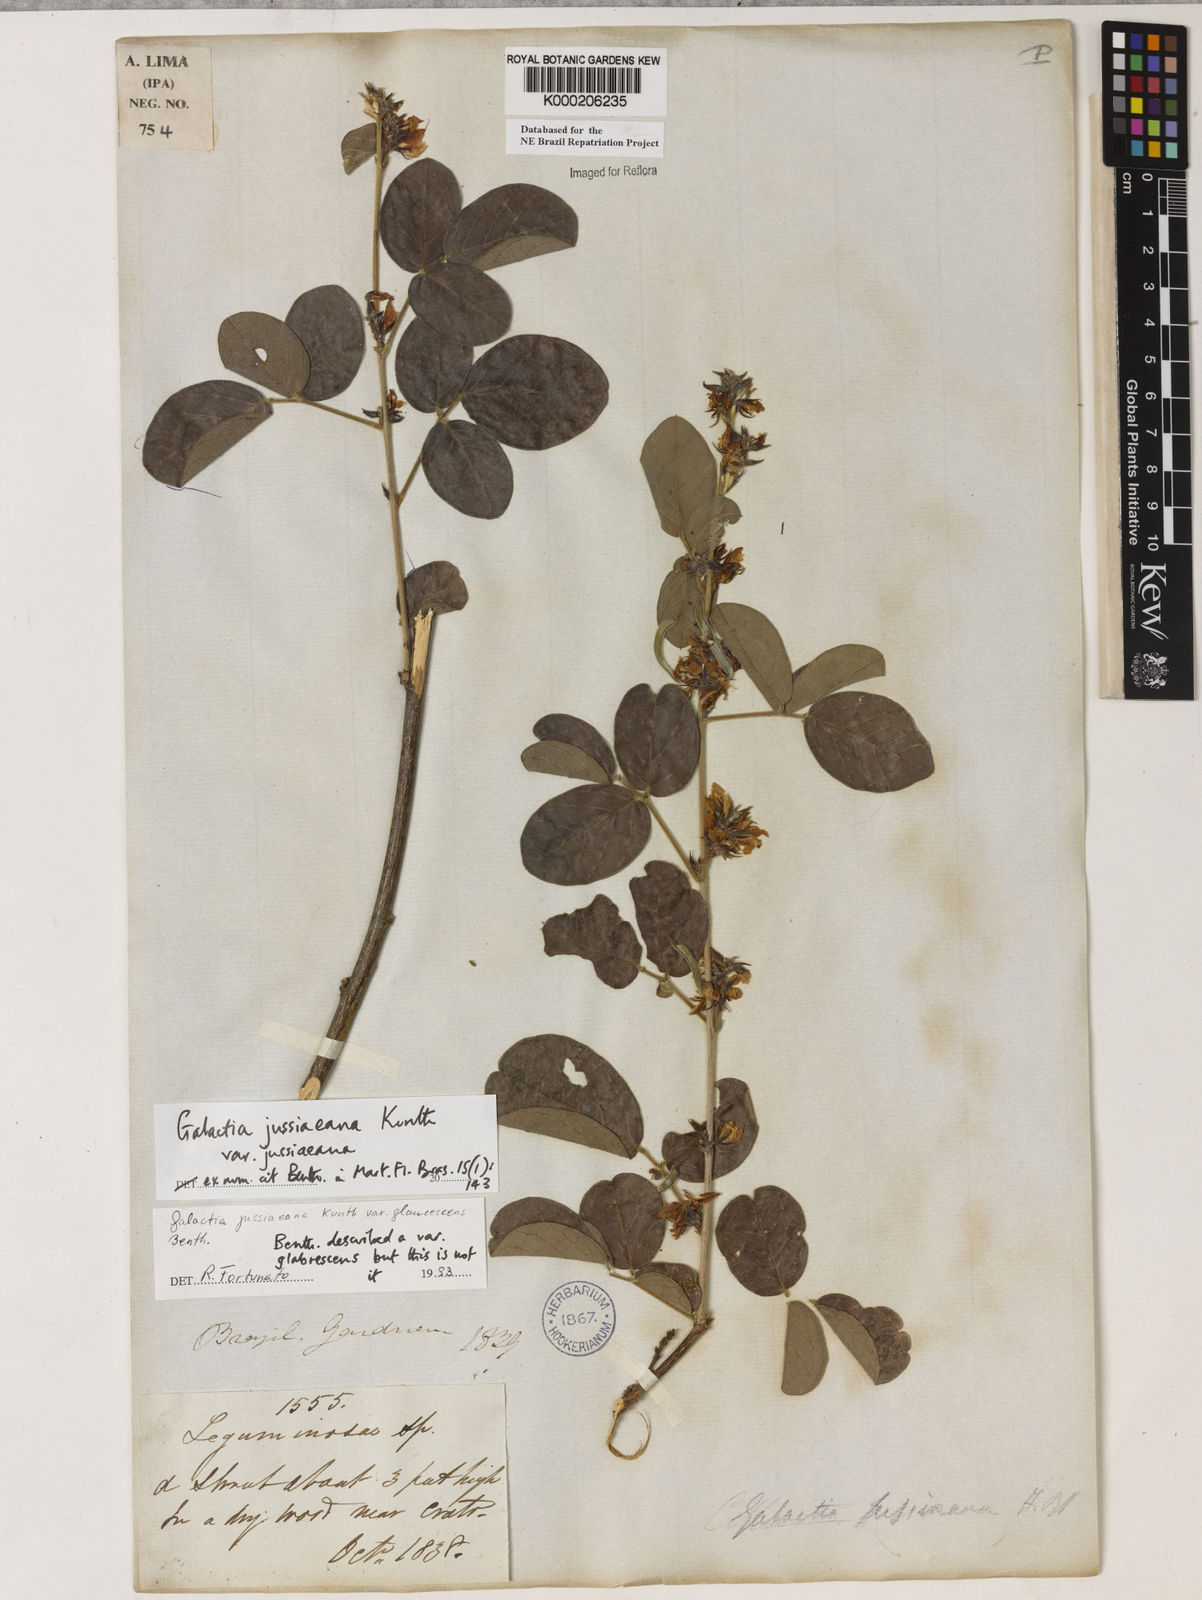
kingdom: Plantae
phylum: Tracheophyta
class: Magnoliopsida
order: Fabales
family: Fabaceae
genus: Galactia
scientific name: Galactia jussiaeana
